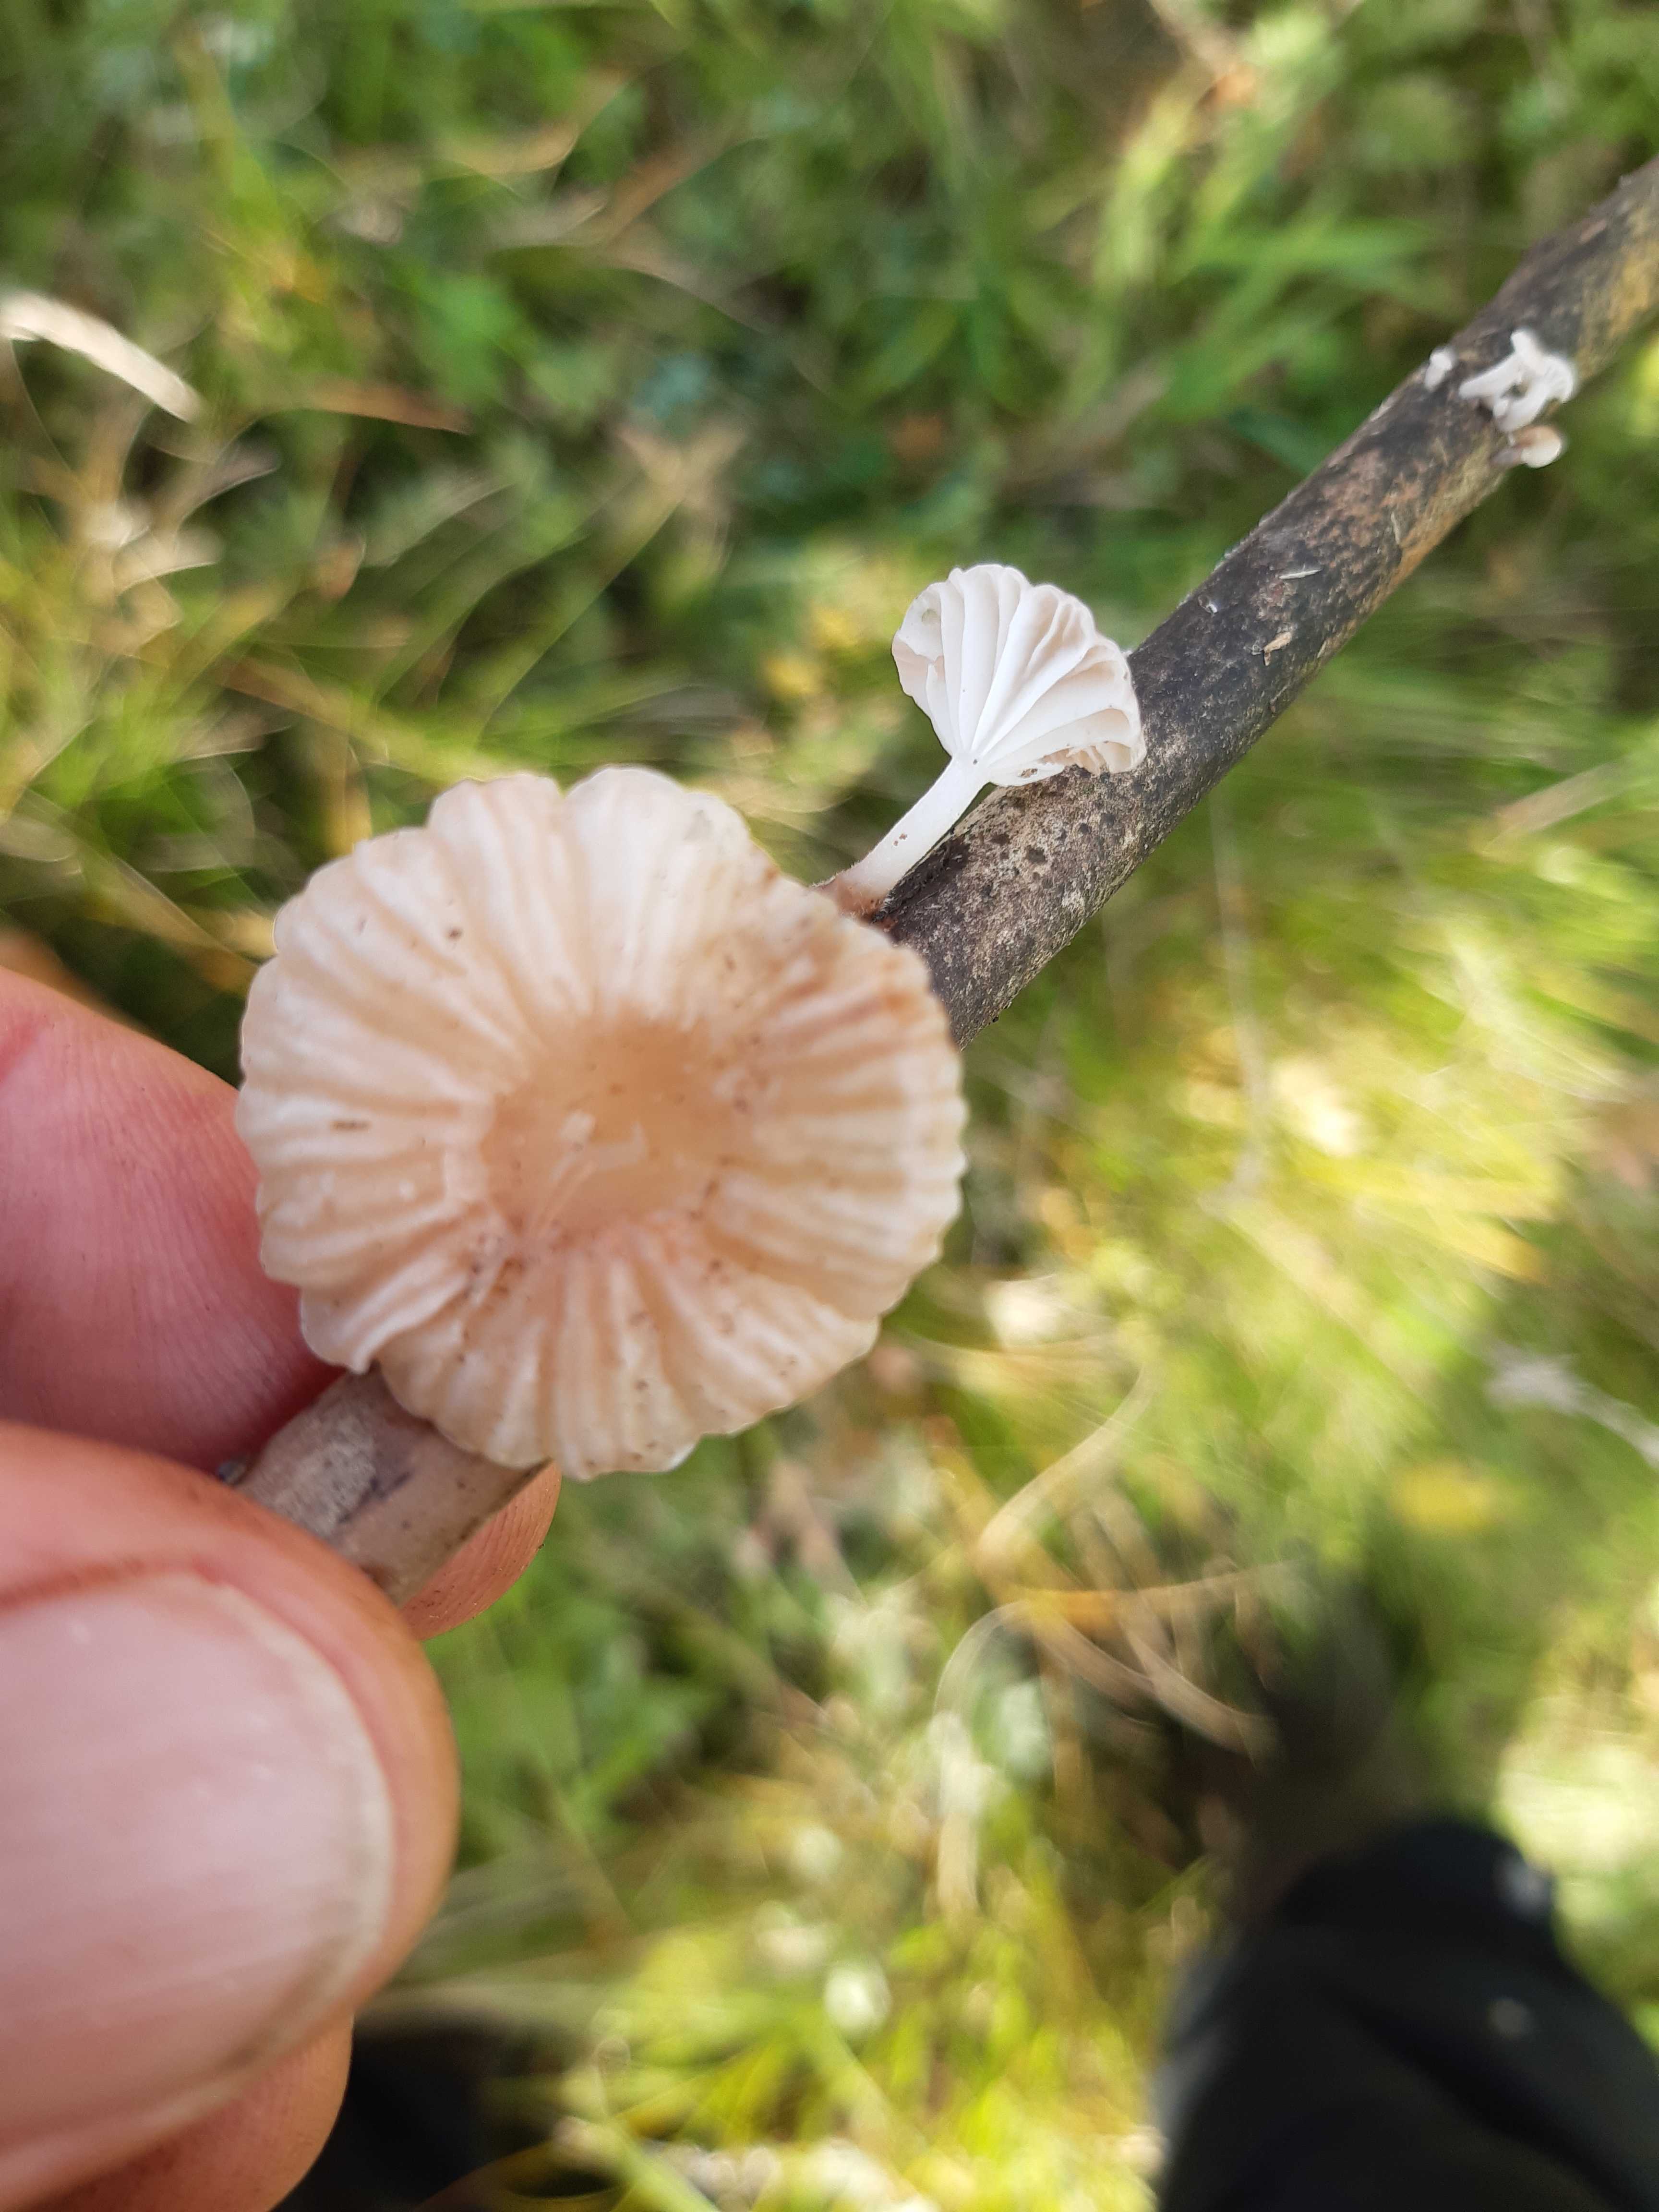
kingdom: Fungi
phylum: Basidiomycota
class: Agaricomycetes
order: Agaricales
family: Mycenaceae
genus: Mycena
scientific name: Mycena belliae
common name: tagrørs-huesvamp
